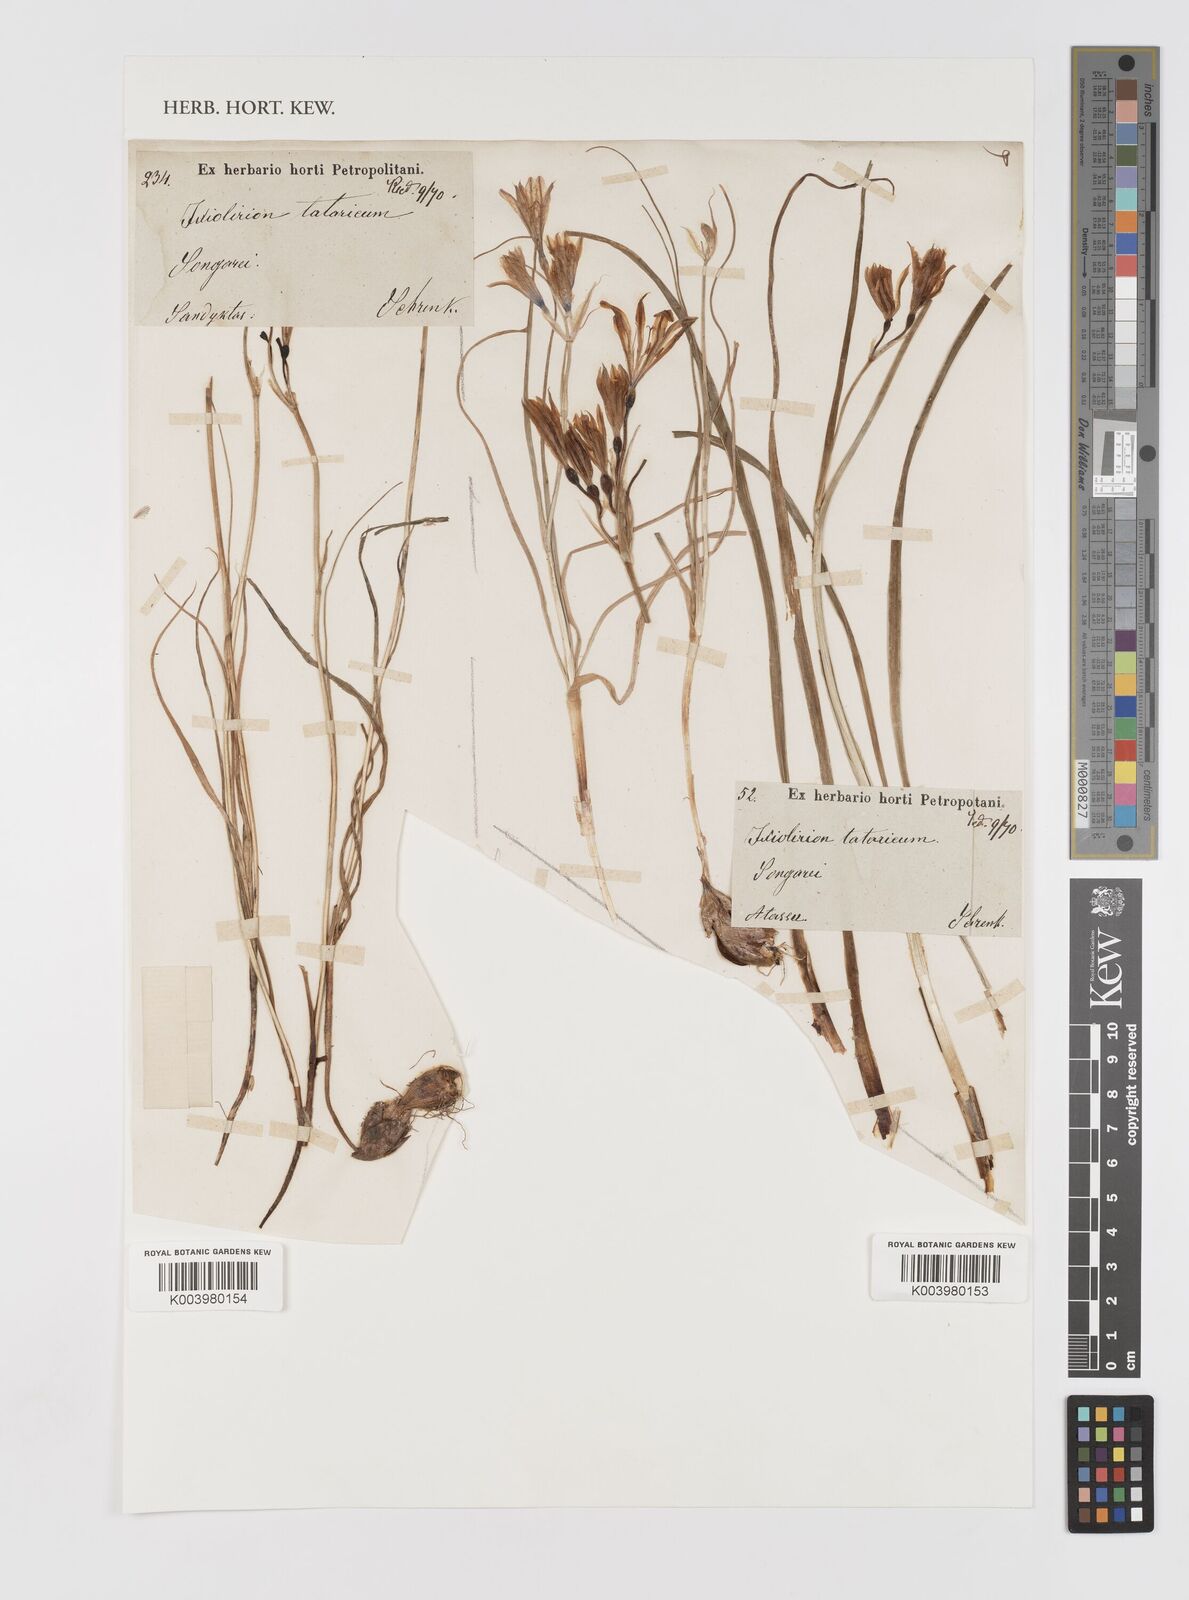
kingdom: Plantae
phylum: Tracheophyta
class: Liliopsida
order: Asparagales
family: Ixioliriaceae
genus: Ixiolirion
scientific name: Ixiolirion tataricum
